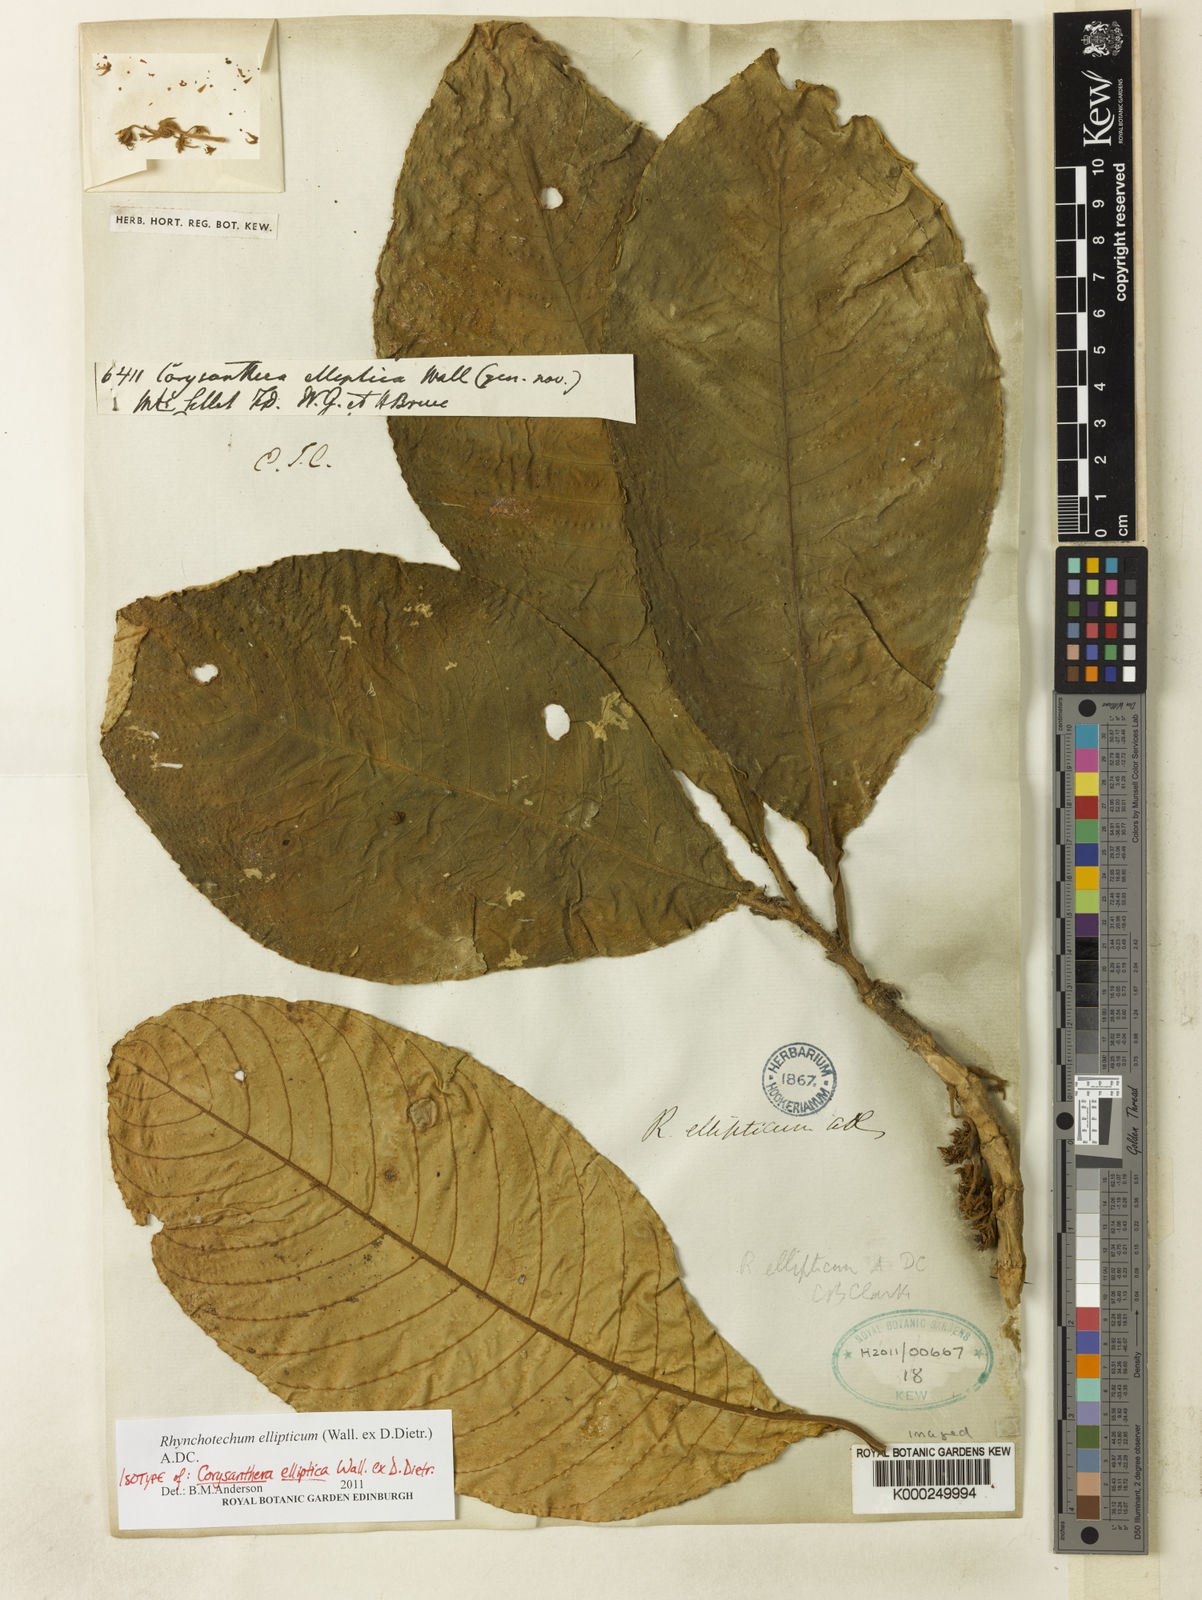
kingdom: Plantae
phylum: Tracheophyta
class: Magnoliopsida
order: Lamiales
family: Gesneriaceae
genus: Rhynchotechum
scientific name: Rhynchotechum ellipticum
